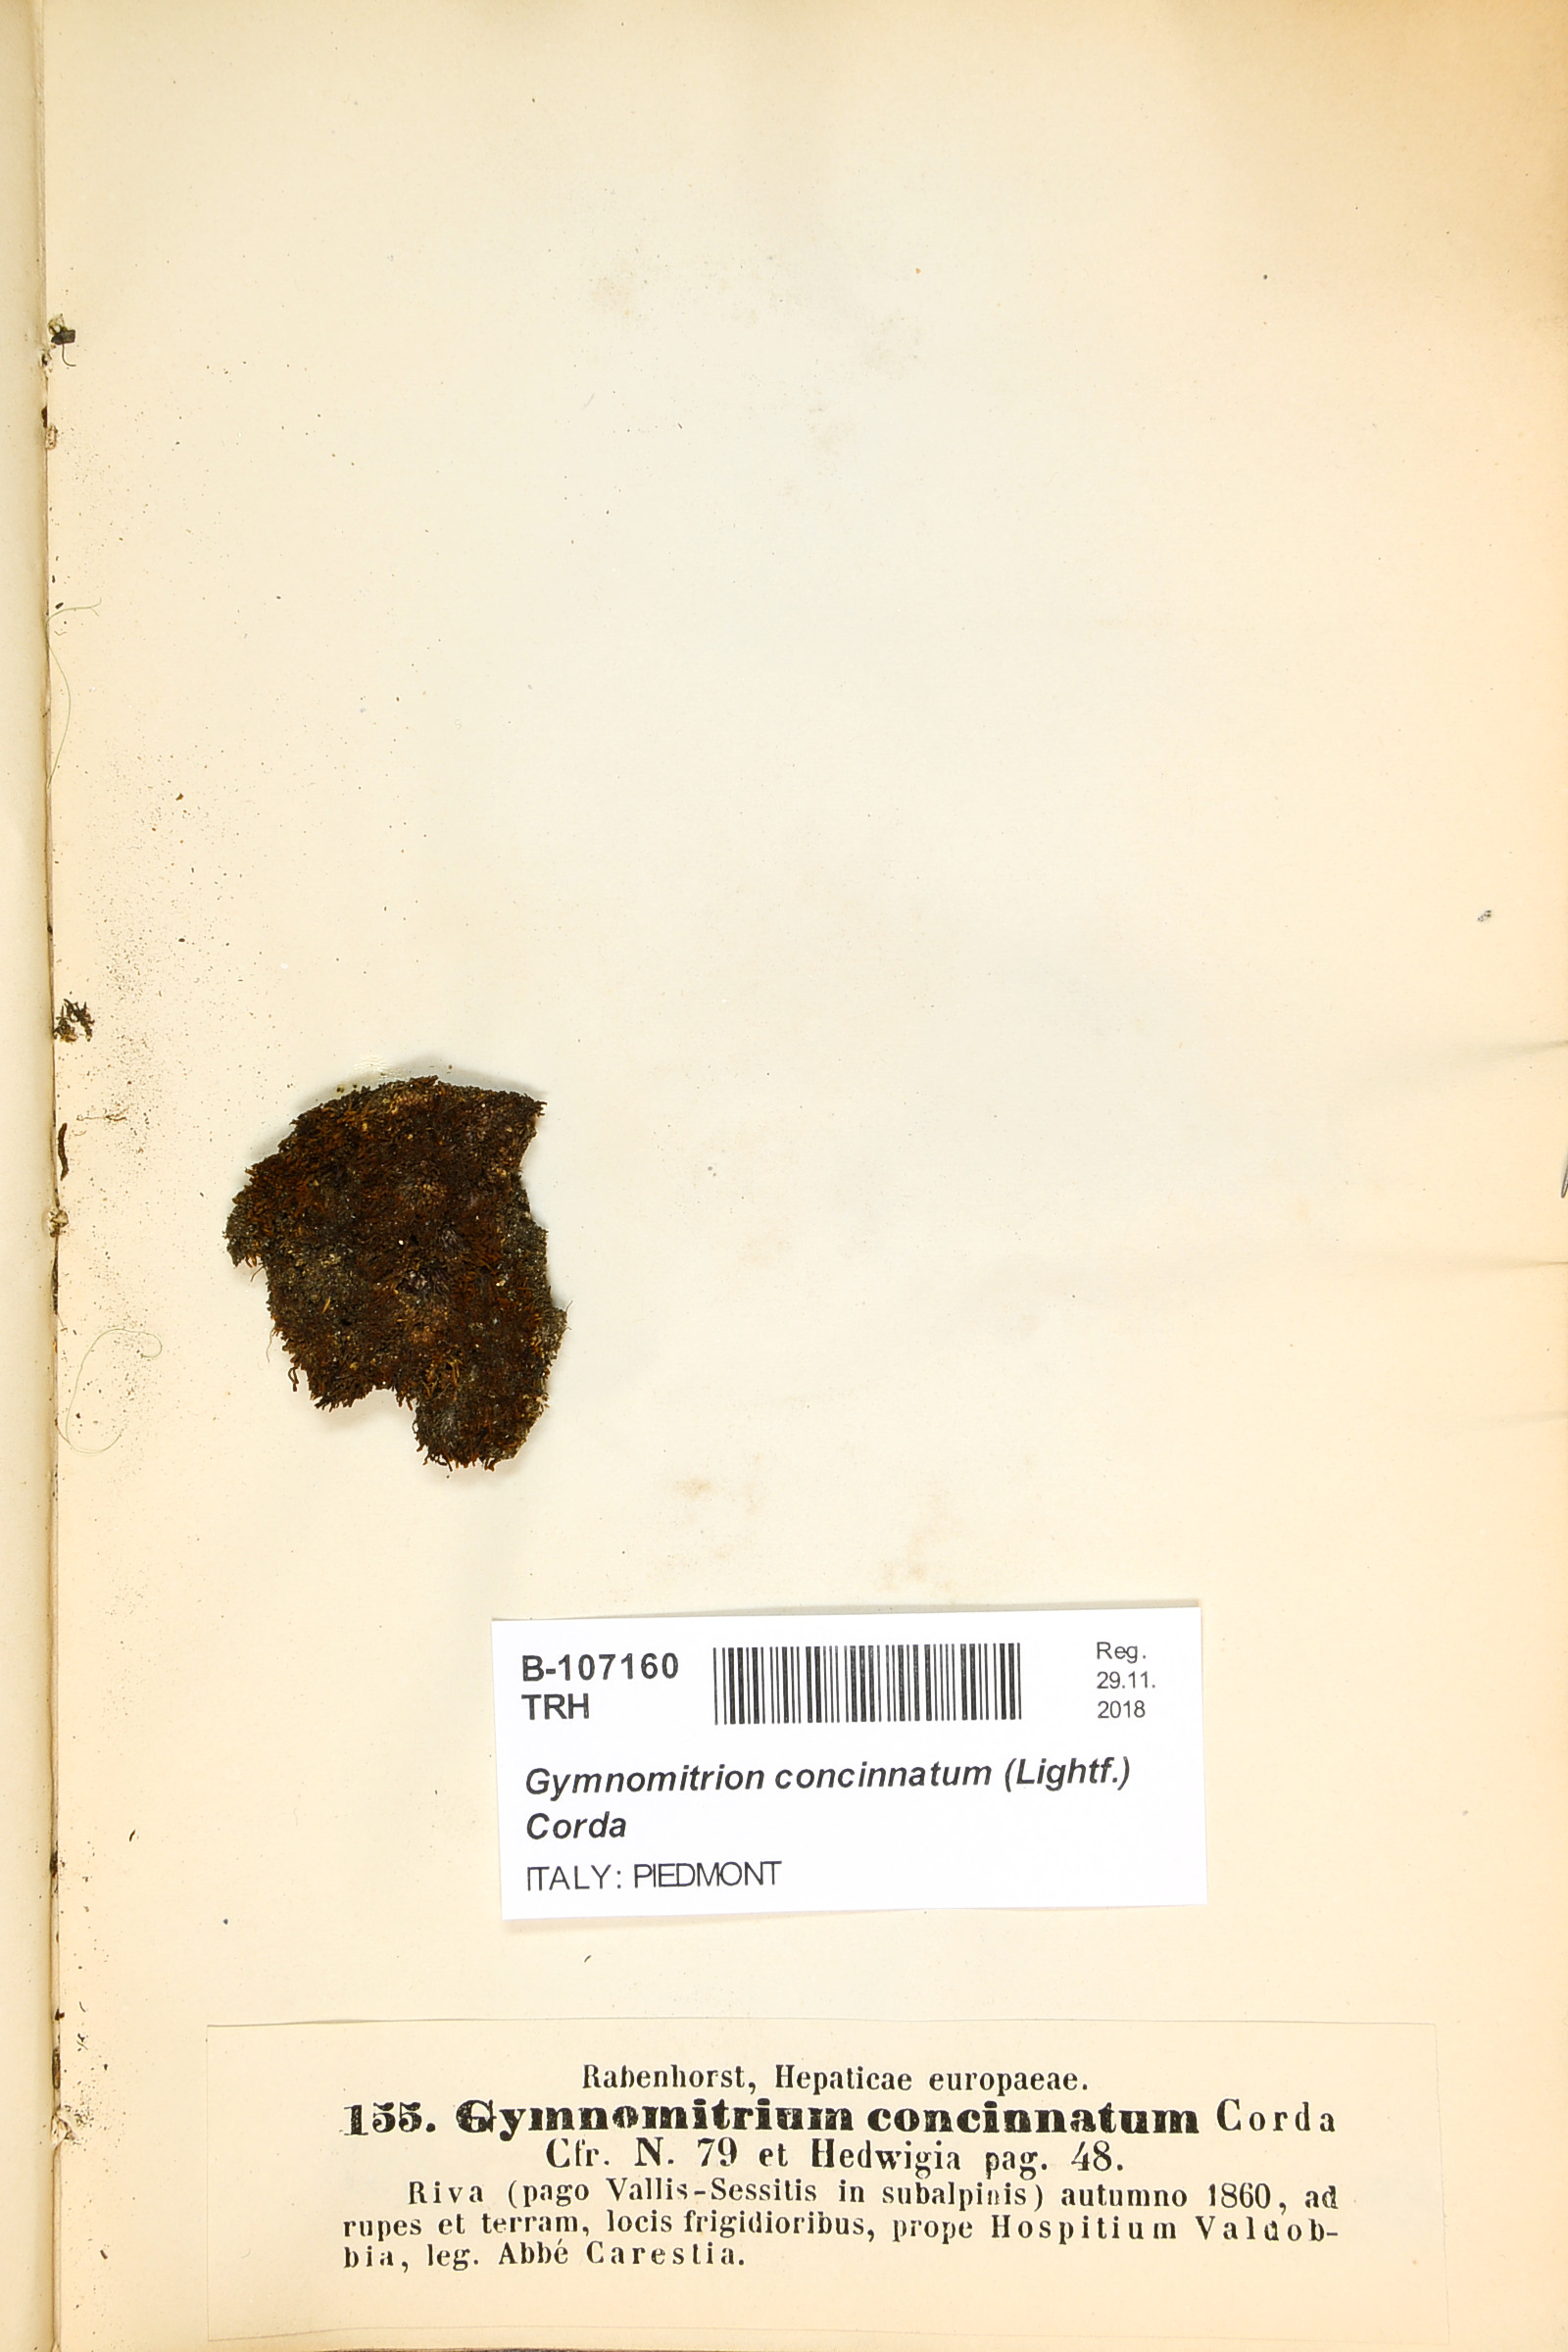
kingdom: Plantae
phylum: Marchantiophyta
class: Jungermanniopsida
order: Jungermanniales
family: Gymnomitriaceae
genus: Gymnomitrion
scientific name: Gymnomitrion concinnatum
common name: Braided frostwort
